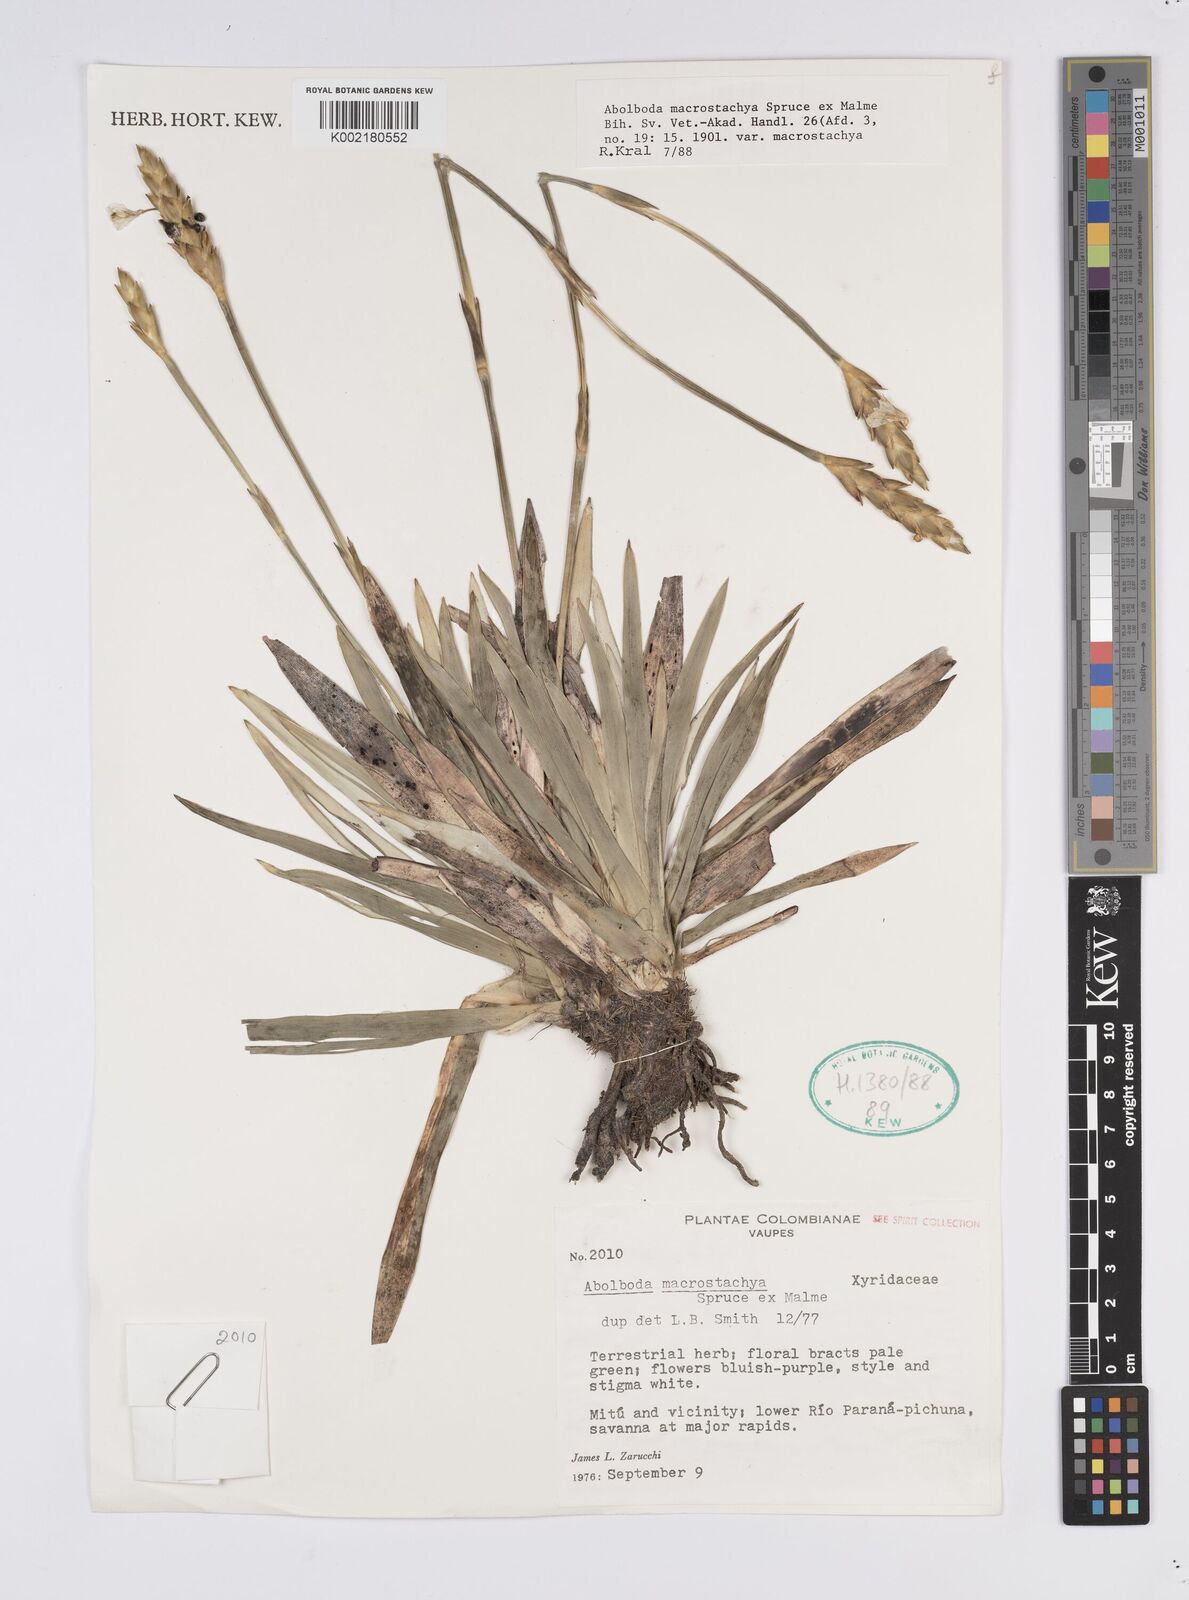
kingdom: Plantae
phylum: Tracheophyta
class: Liliopsida
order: Poales
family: Xyridaceae
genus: Abolboda
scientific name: Abolboda macrostachya
